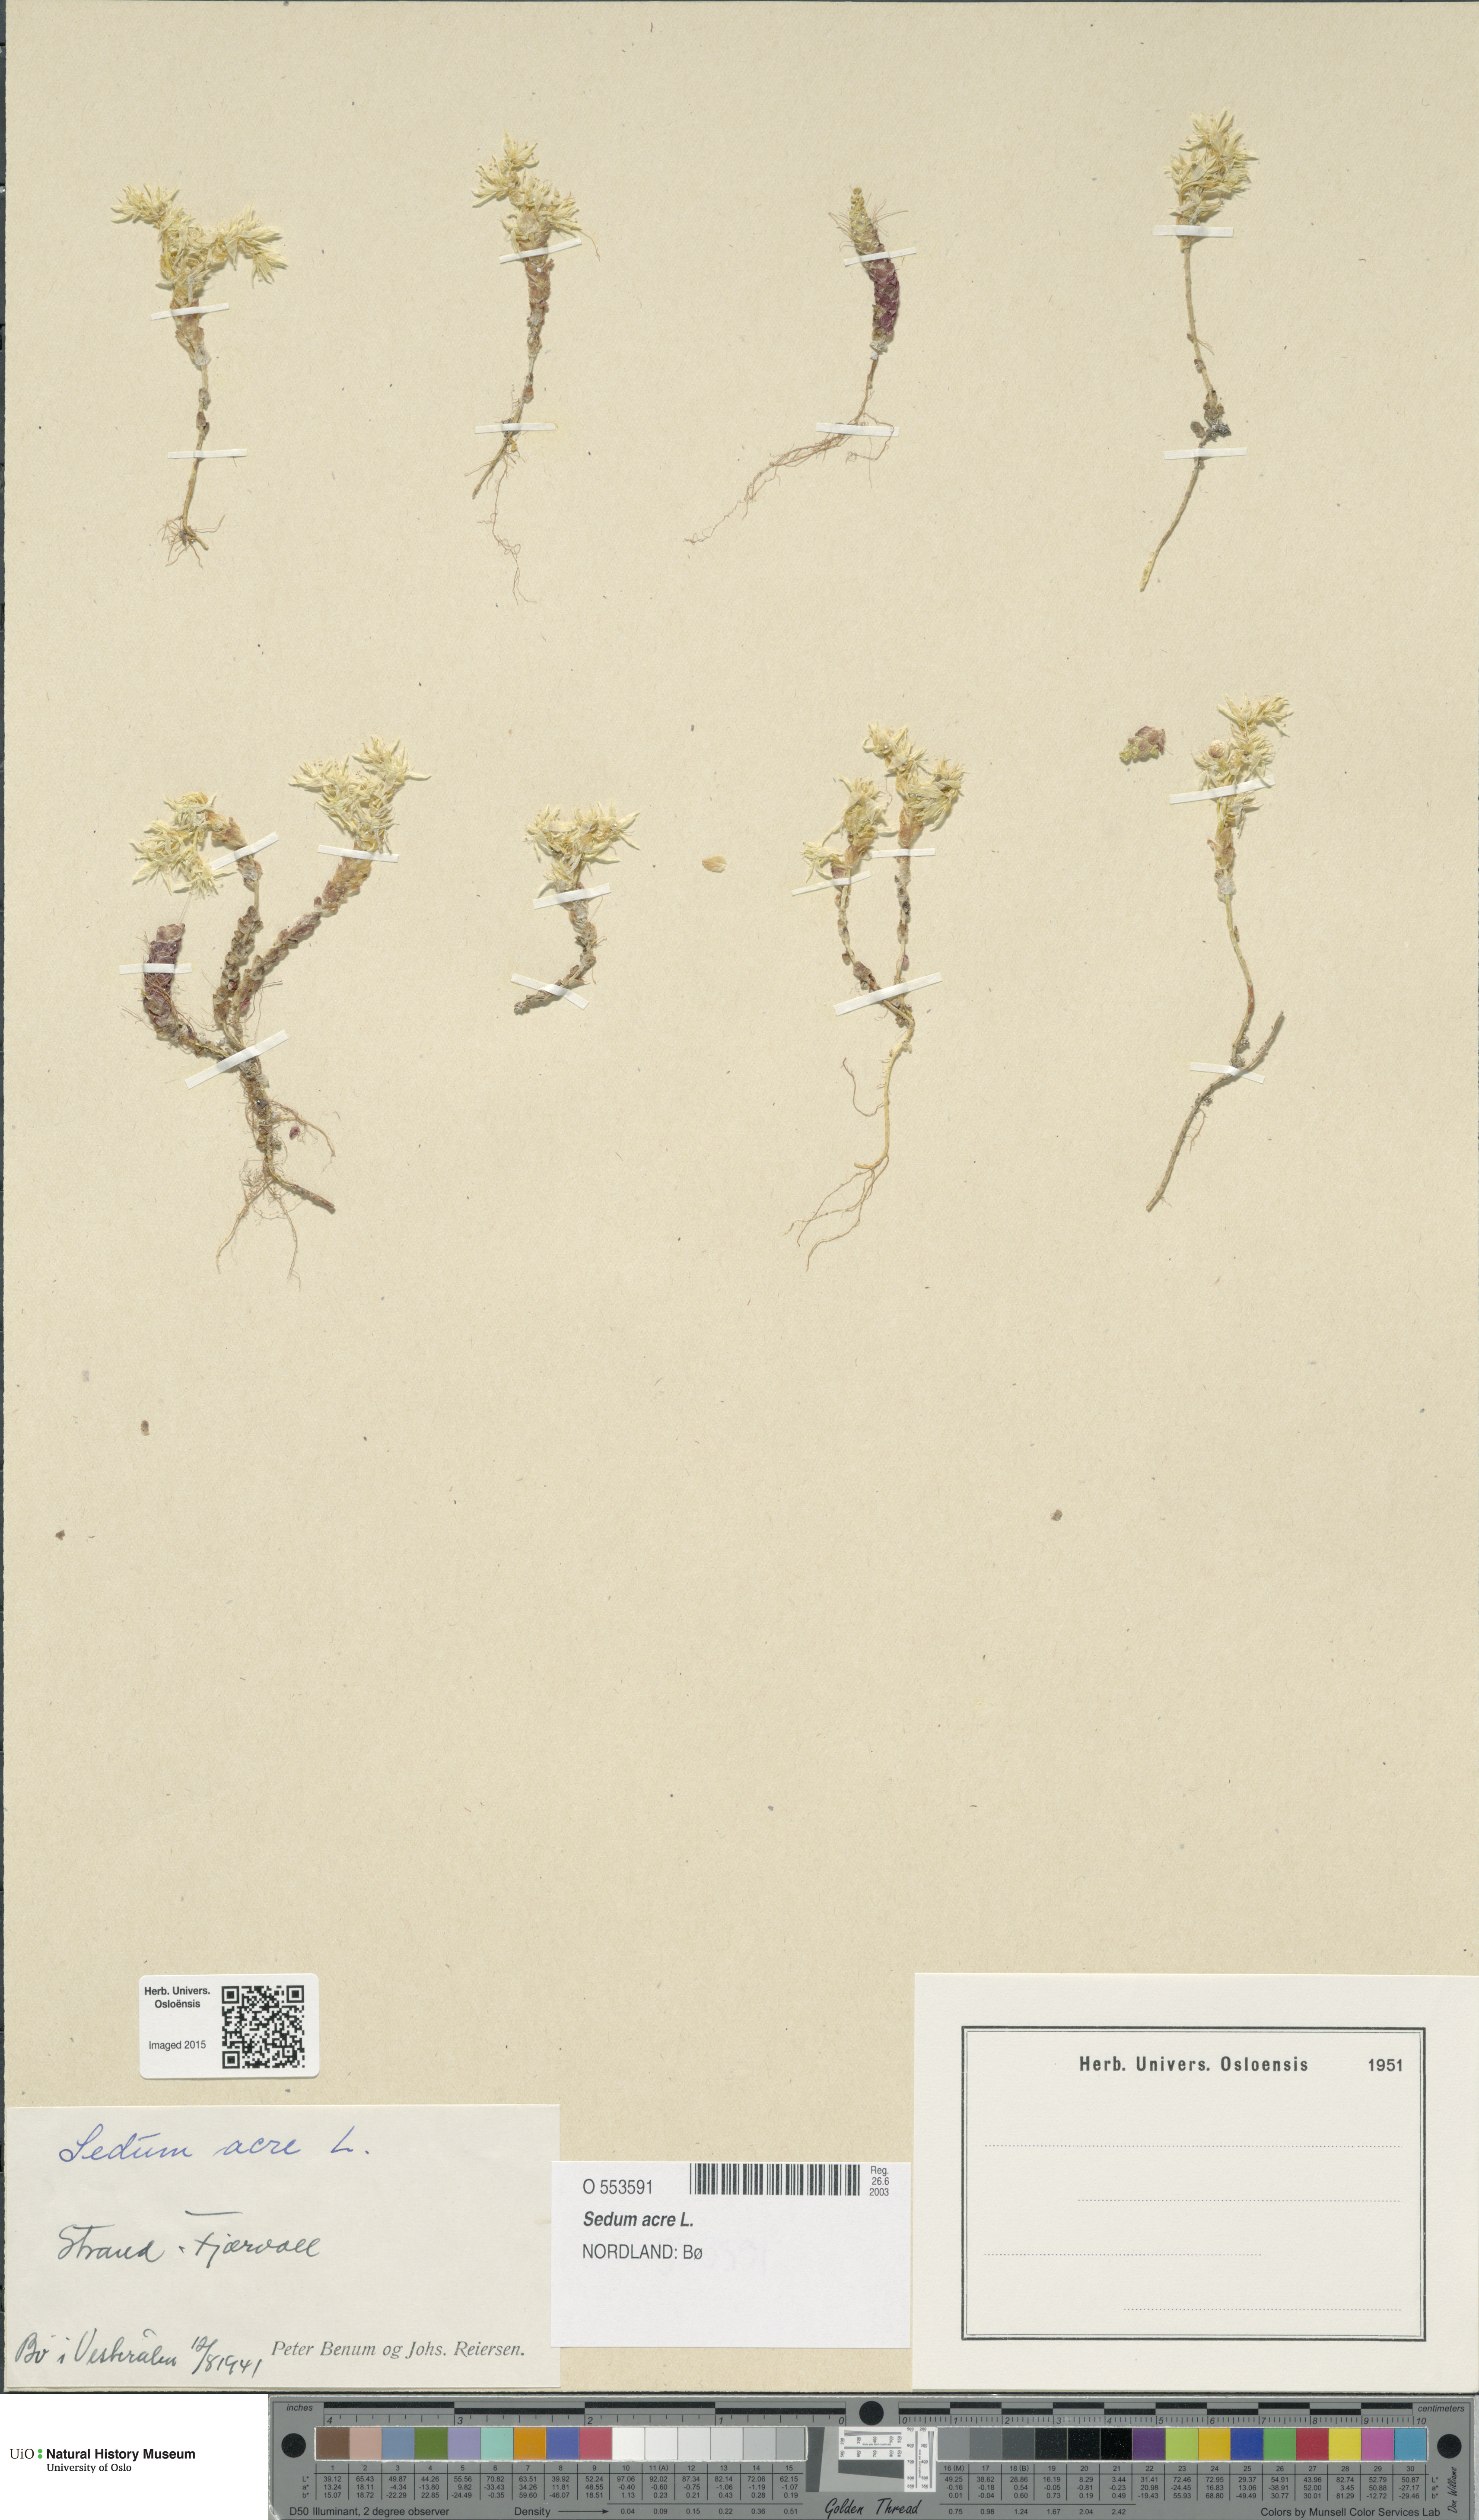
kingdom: Plantae
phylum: Tracheophyta
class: Magnoliopsida
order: Saxifragales
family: Crassulaceae
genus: Sedum
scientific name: Sedum acre
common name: Biting stonecrop
